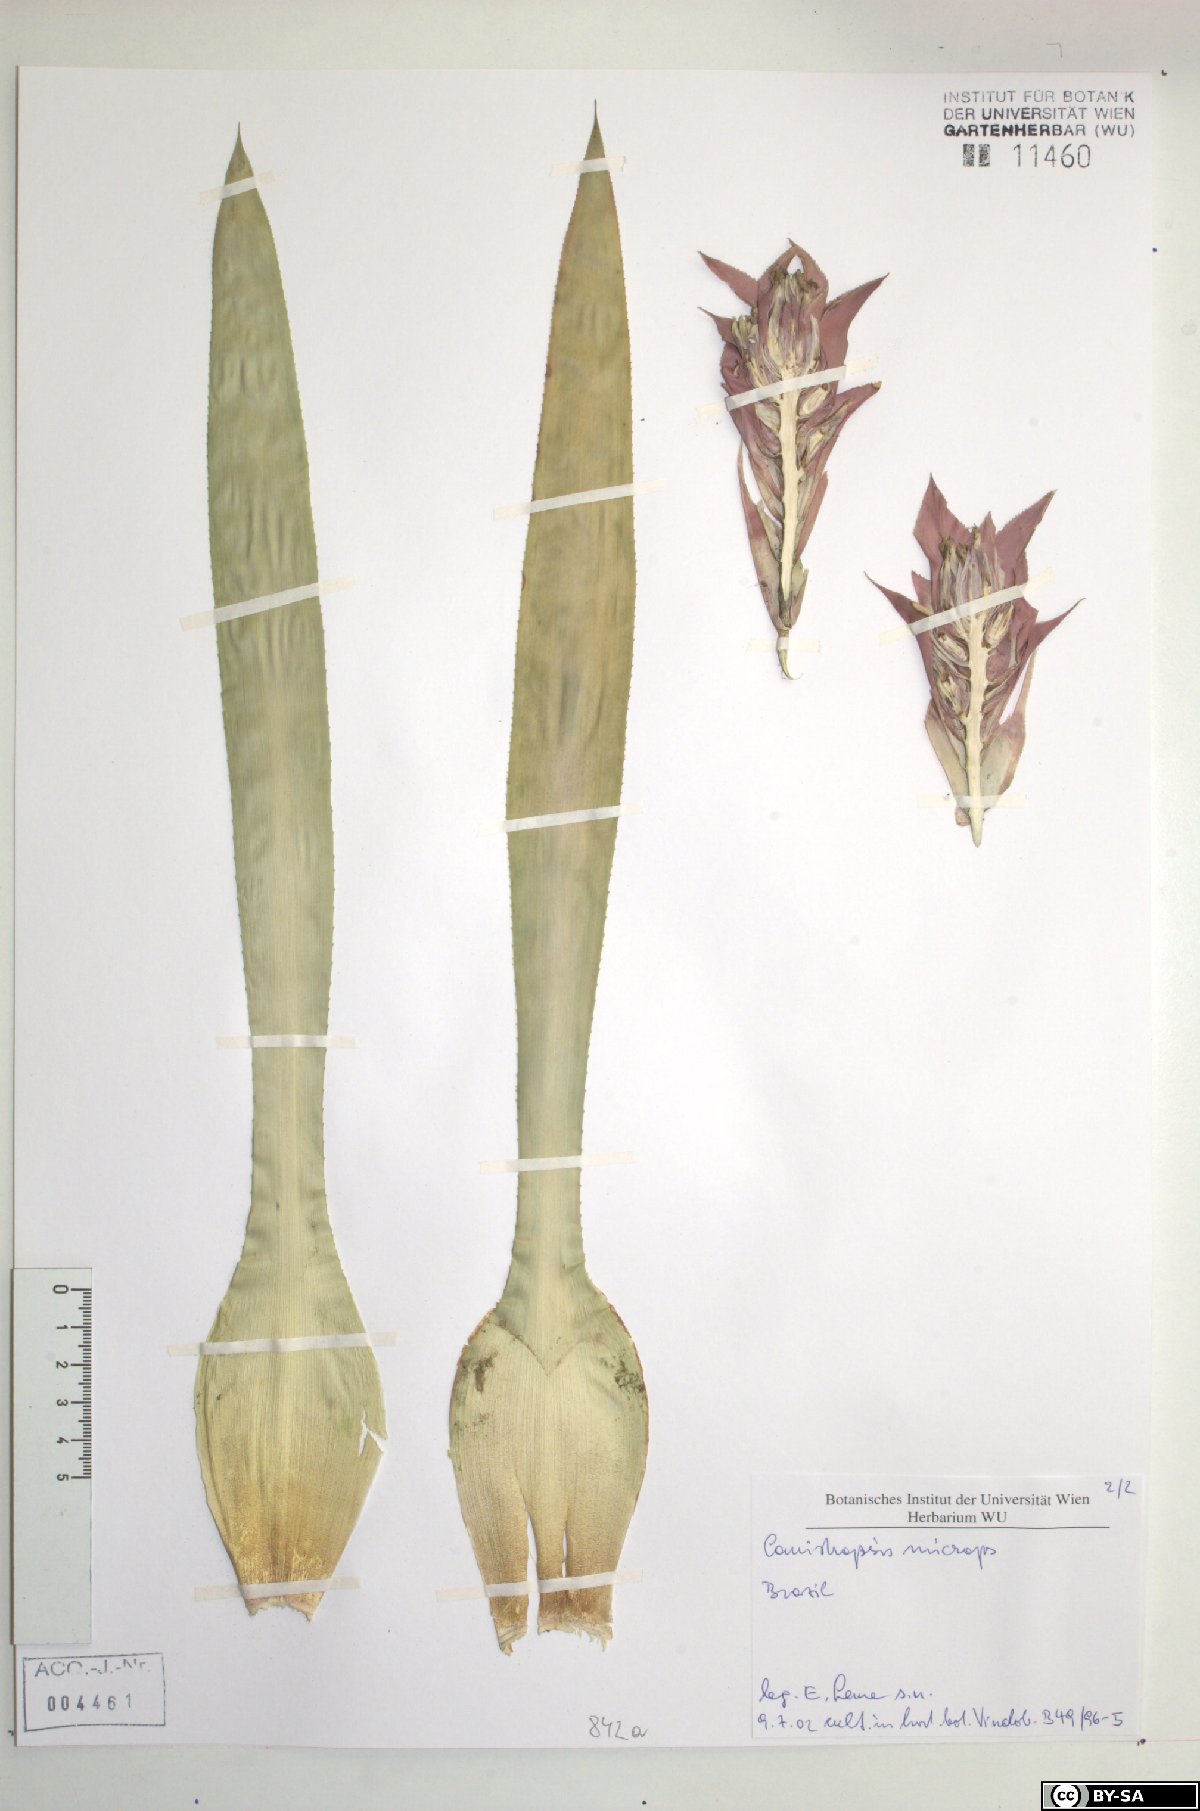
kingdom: Plantae
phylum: Tracheophyta
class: Liliopsida
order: Poales
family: Bromeliaceae
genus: Canistropsis
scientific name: Canistropsis microps
